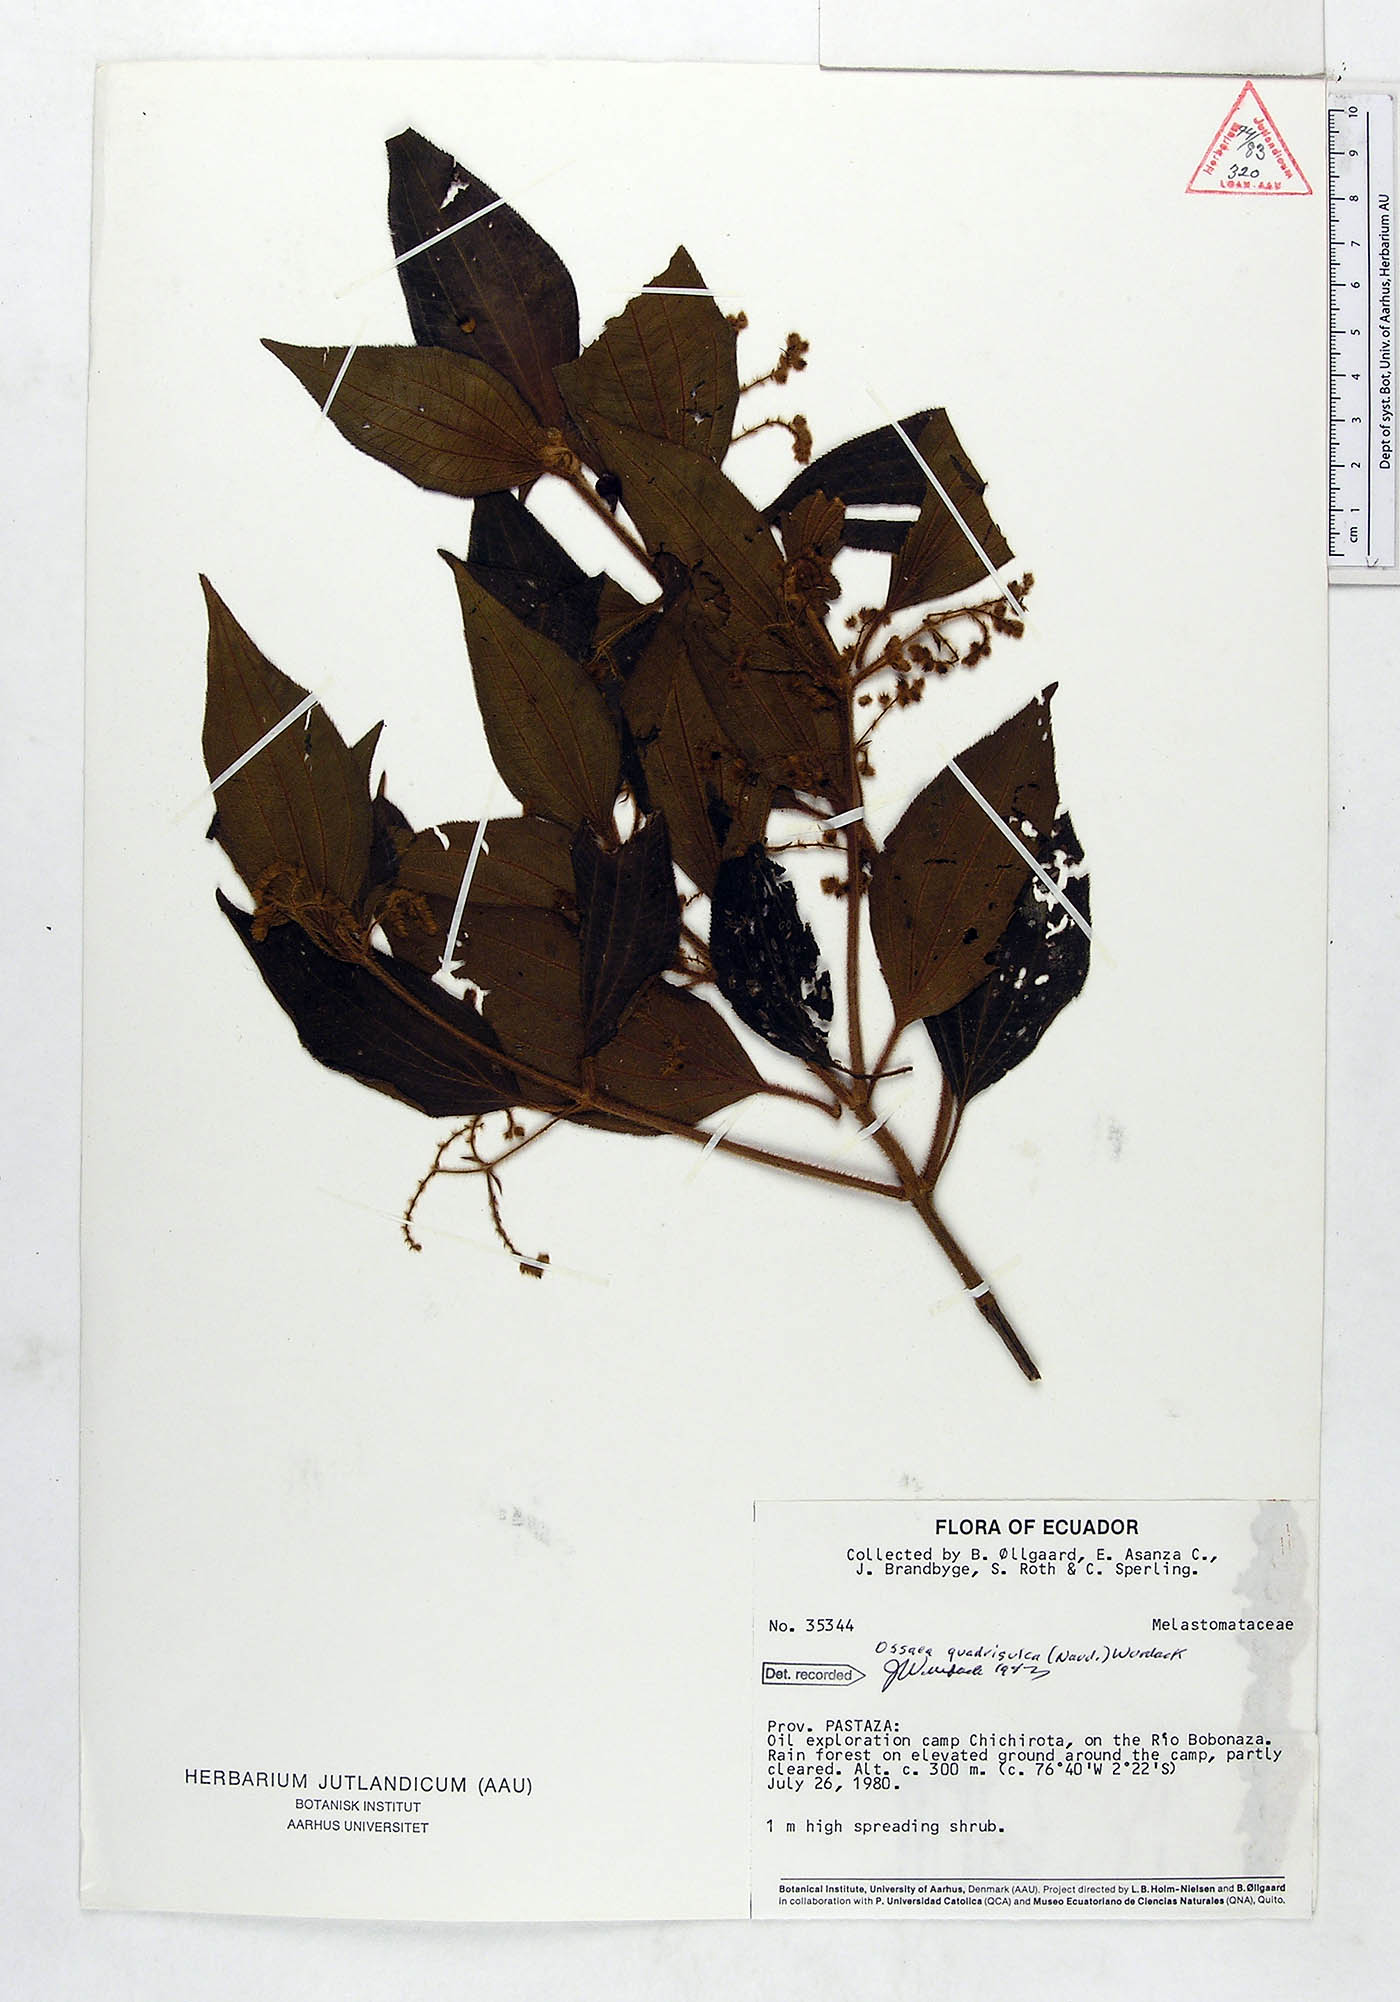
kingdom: Plantae
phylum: Tracheophyta
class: Magnoliopsida
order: Myrtales
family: Melastomataceae
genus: Miconia
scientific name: Miconia quadrisulca
